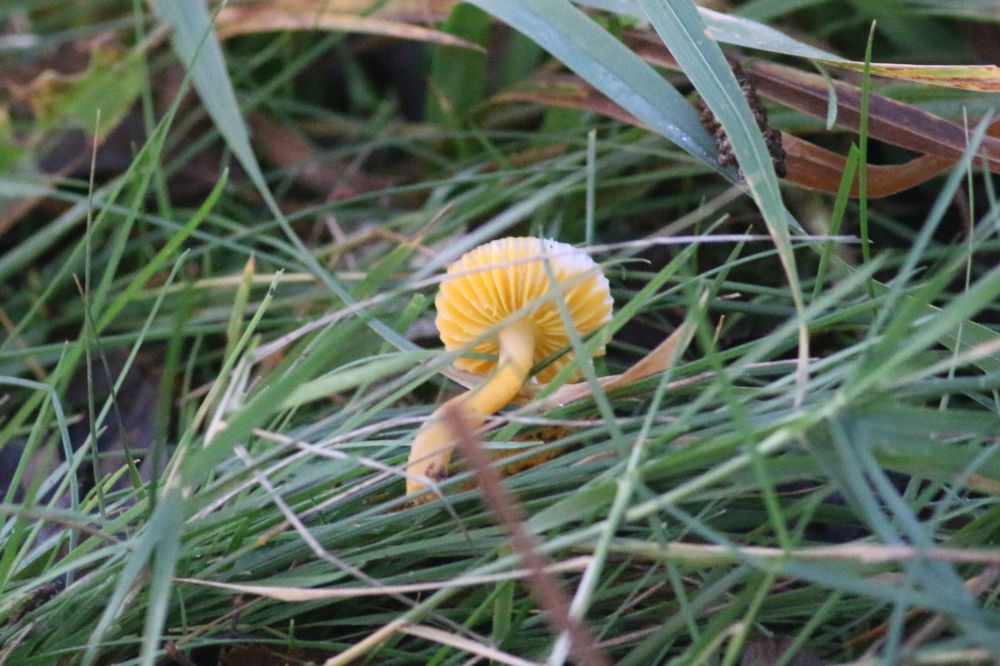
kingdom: Fungi
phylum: Basidiomycota
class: Agaricomycetes
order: Agaricales
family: Hygrophoraceae
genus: Gliophorus
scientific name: Gliophorus psittacinus
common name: papegøje-vokshat
